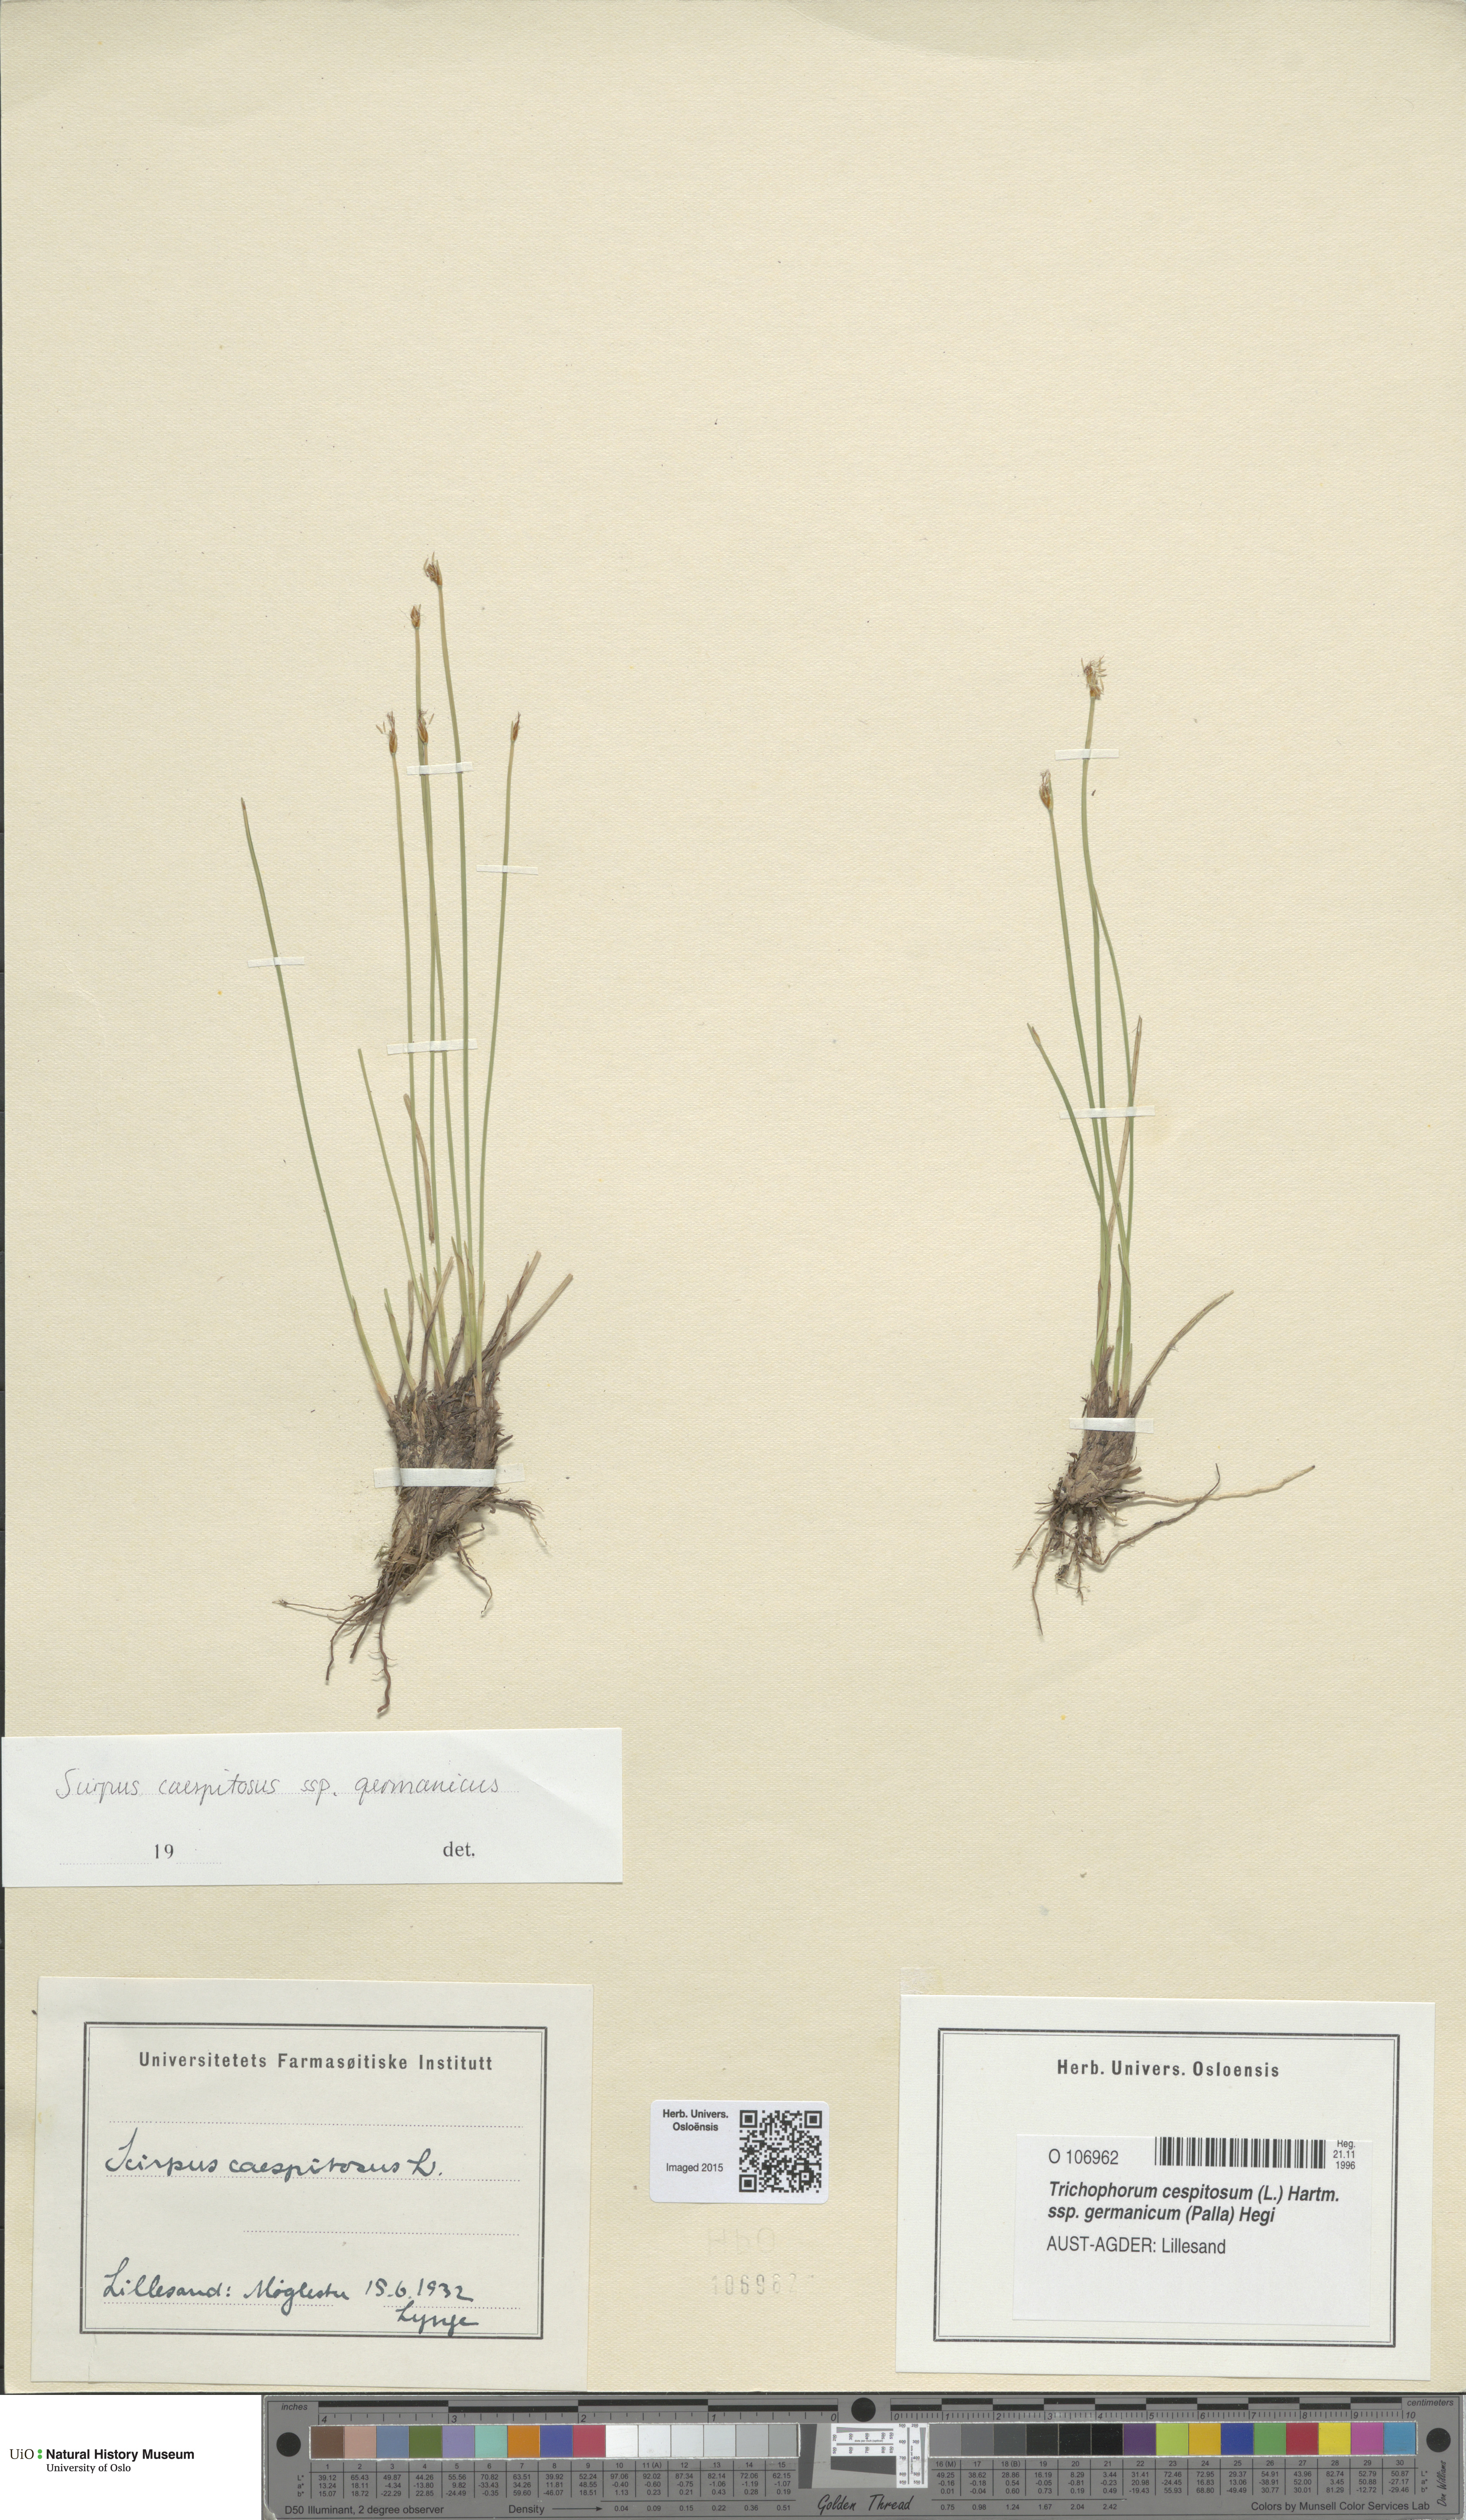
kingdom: Plantae
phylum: Tracheophyta
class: Liliopsida
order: Poales
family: Cyperaceae
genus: Trichophorum
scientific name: Trichophorum cespitosum
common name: Cespitose bulrush
